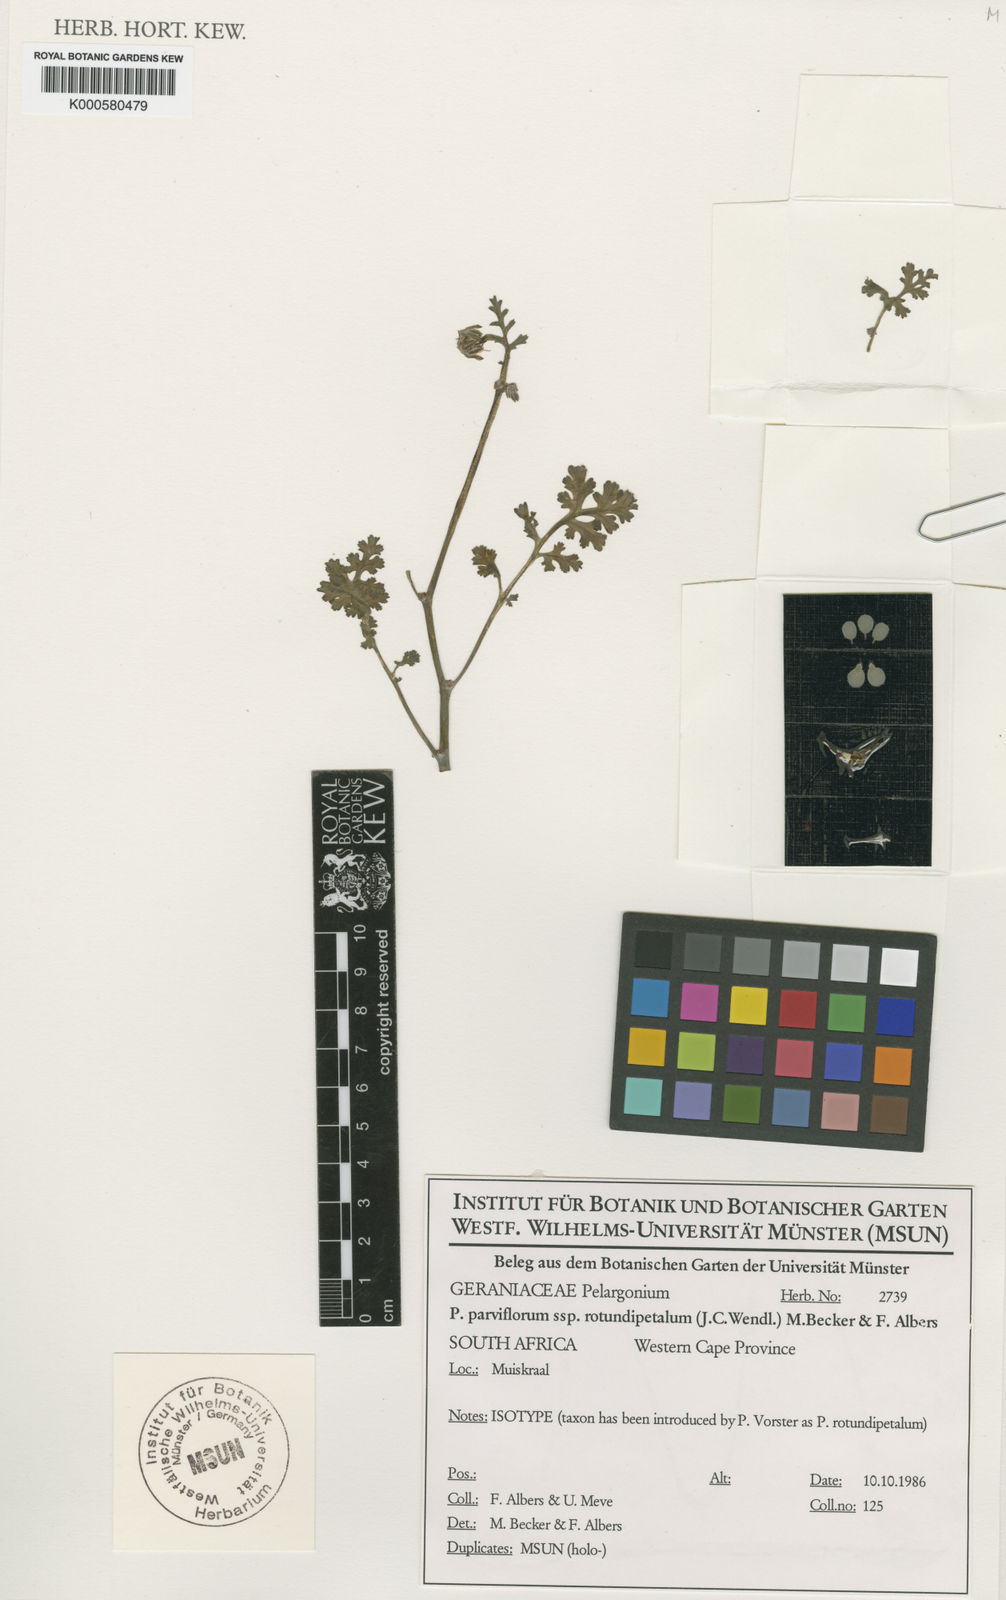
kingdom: Plantae
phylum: Tracheophyta
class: Magnoliopsida
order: Geraniales
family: Geraniaceae
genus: Pelargonium
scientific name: Pelargonium carnosum
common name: Fleshy-stalk pelargonium
